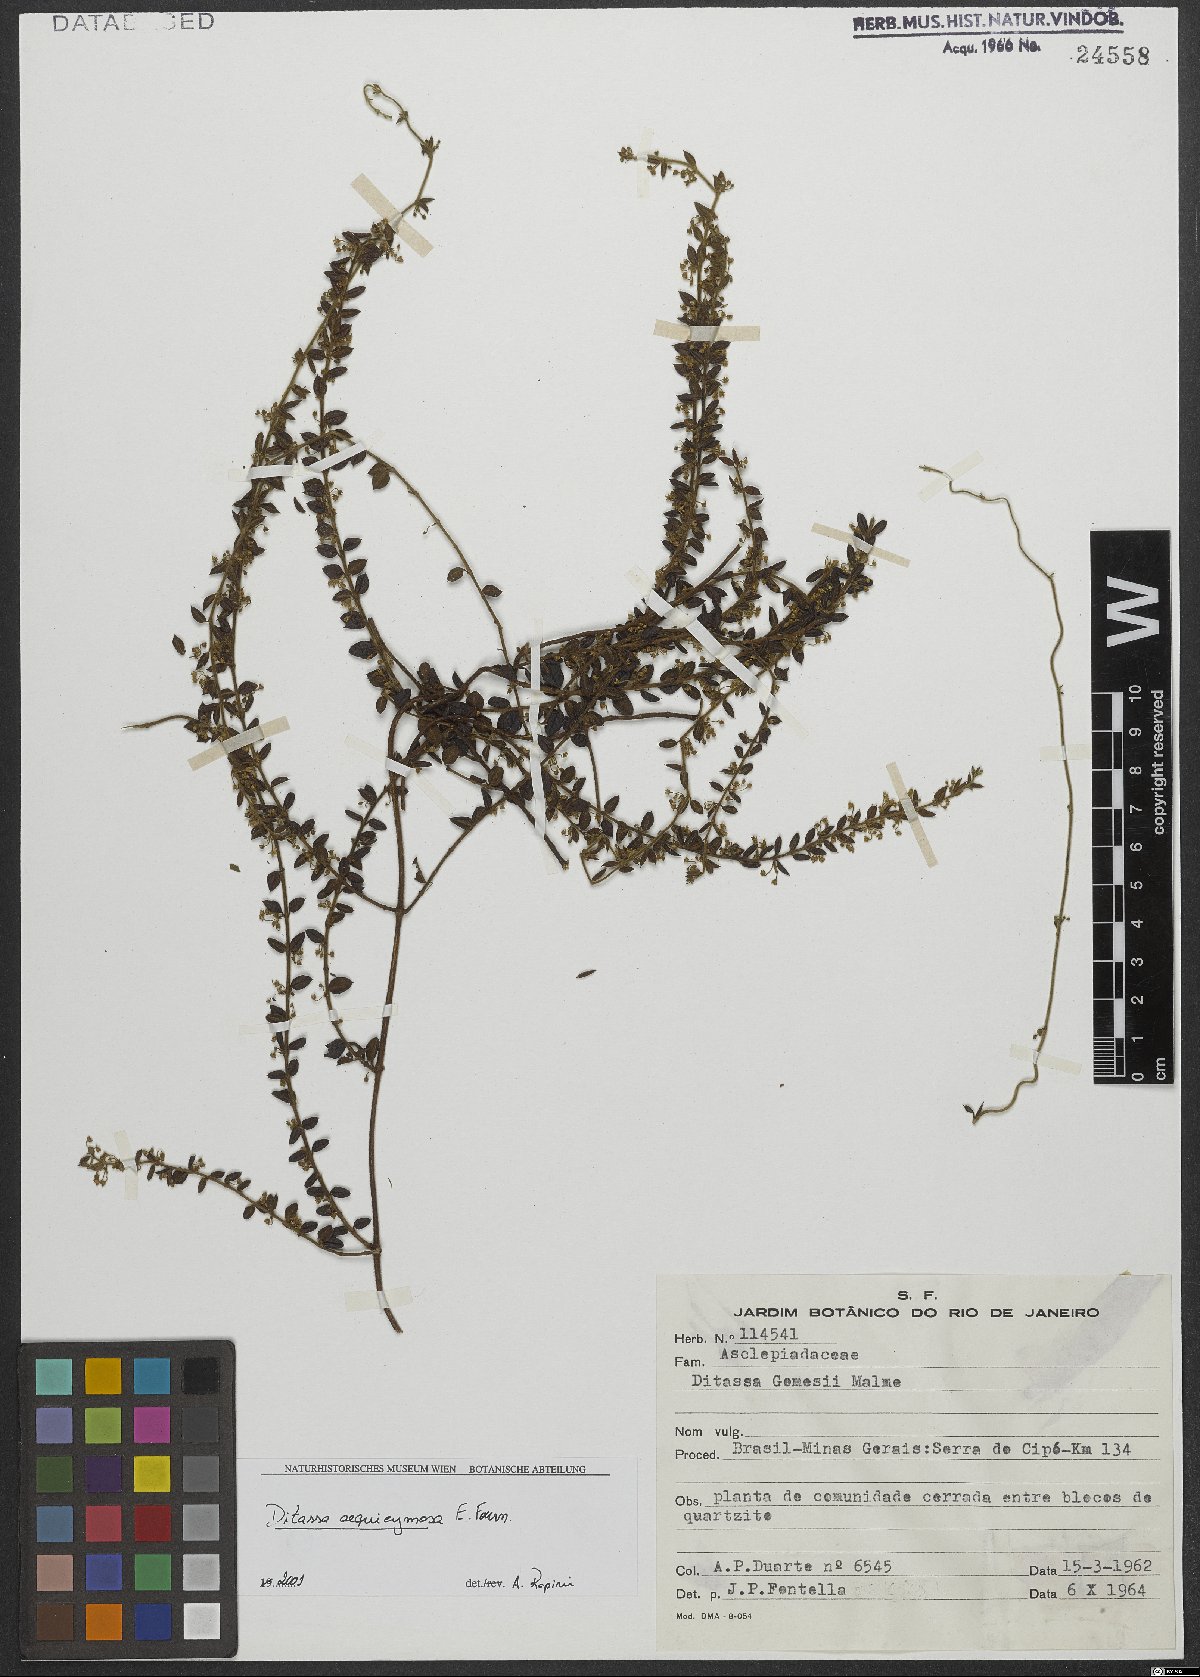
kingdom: Plantae
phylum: Tracheophyta
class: Magnoliopsida
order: Gentianales
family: Apocynaceae
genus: Ditassa
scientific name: Ditassa aequicymosa
